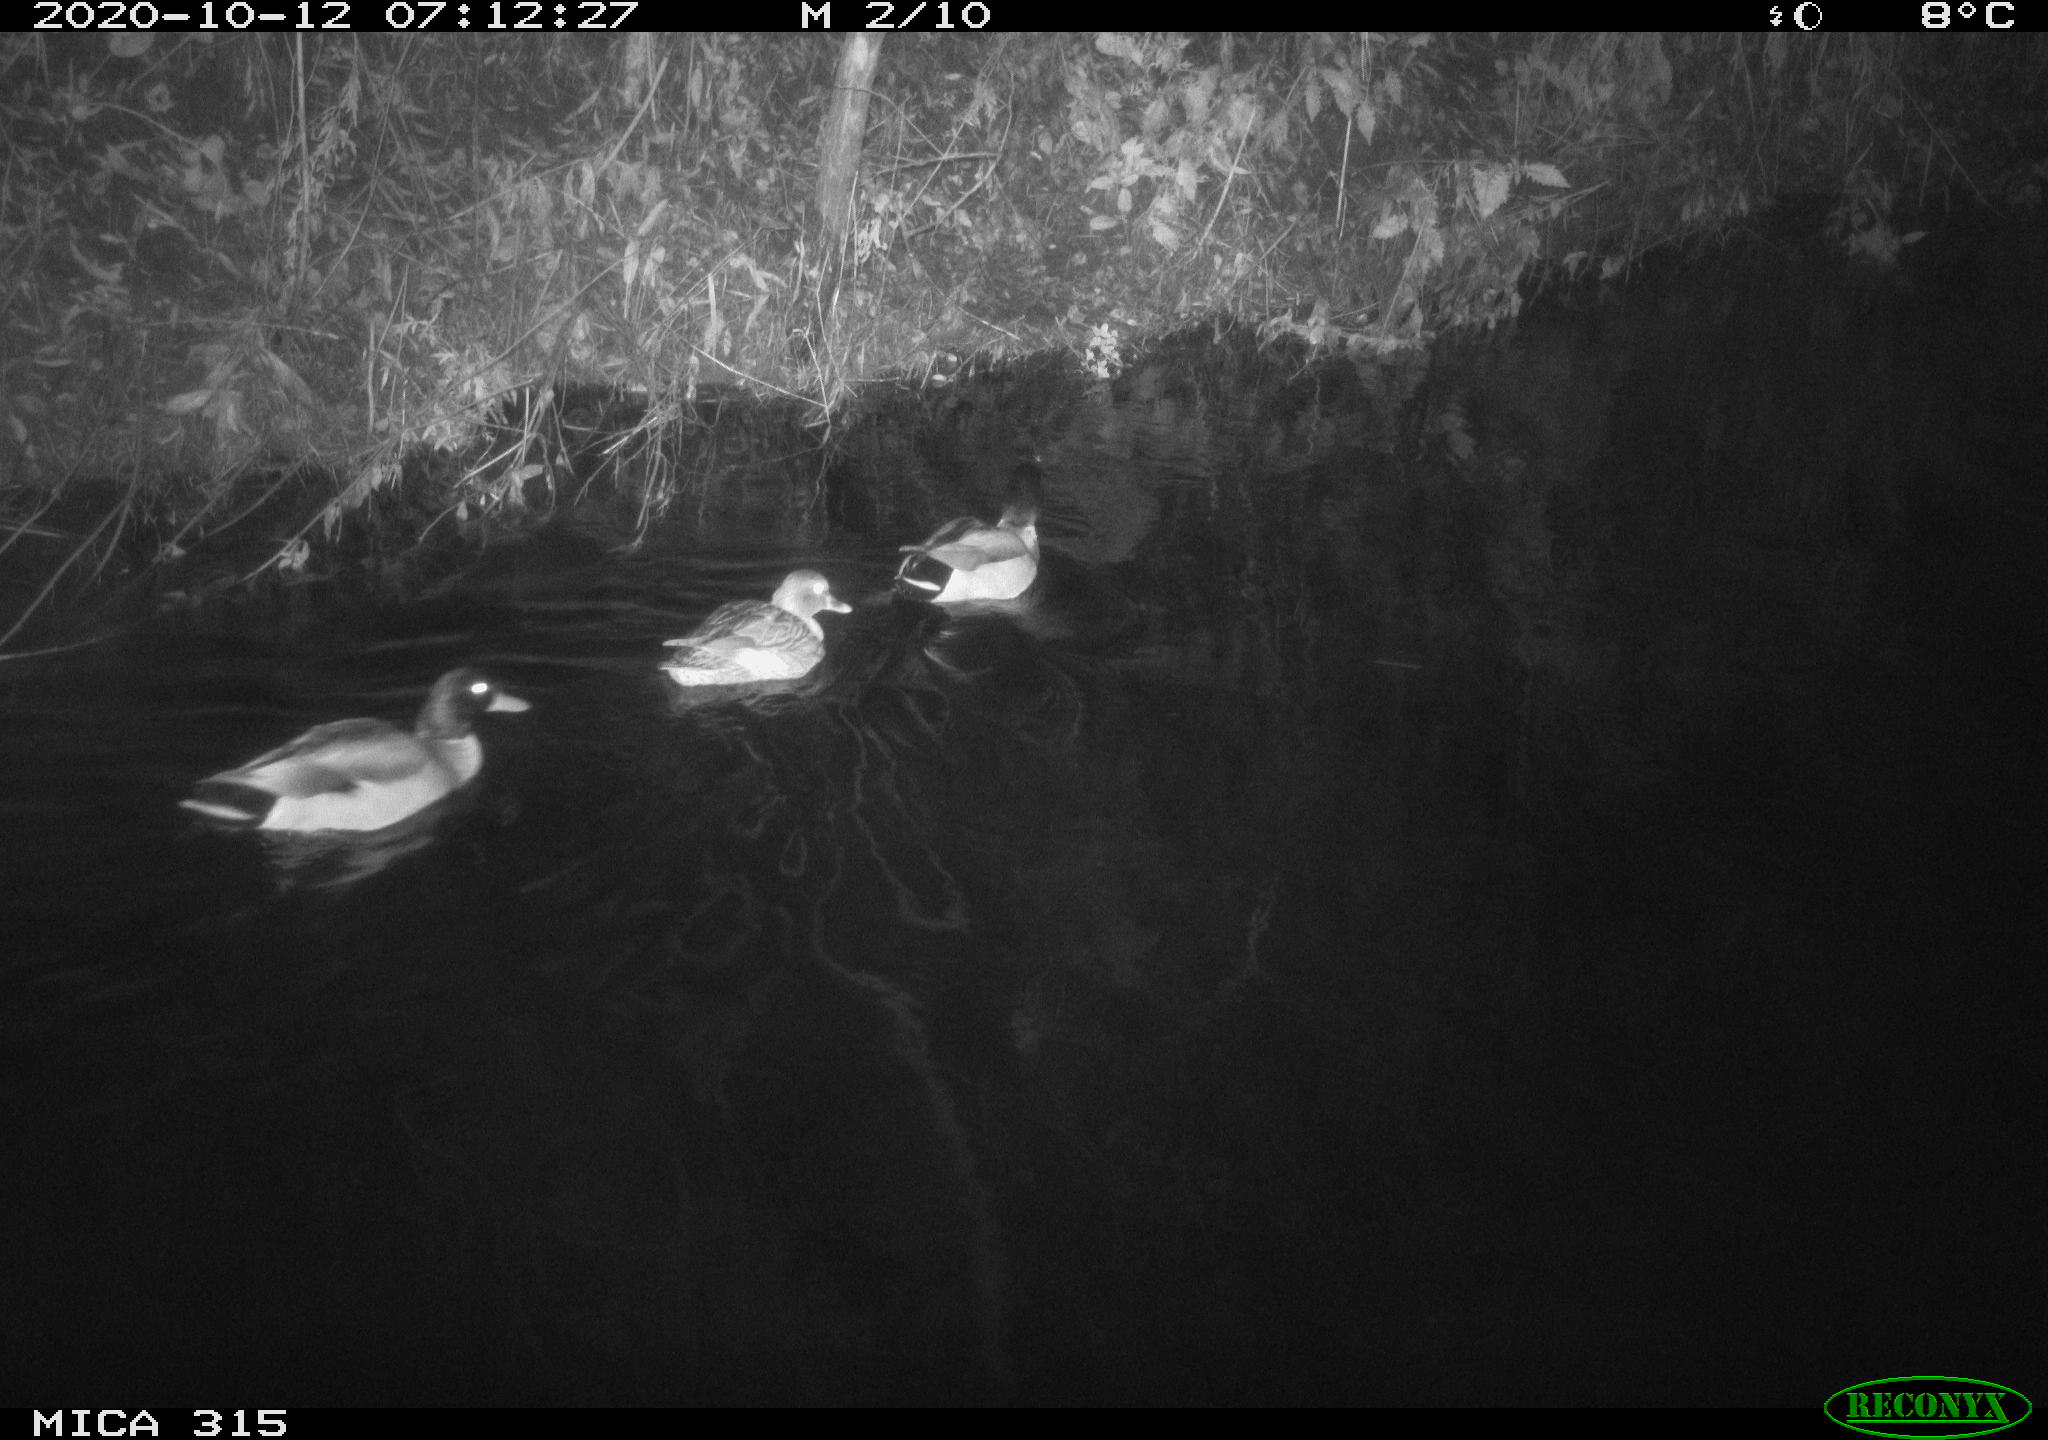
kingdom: Animalia
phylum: Chordata
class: Aves
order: Anseriformes
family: Anatidae
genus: Anas
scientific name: Anas platyrhynchos
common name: Mallard
